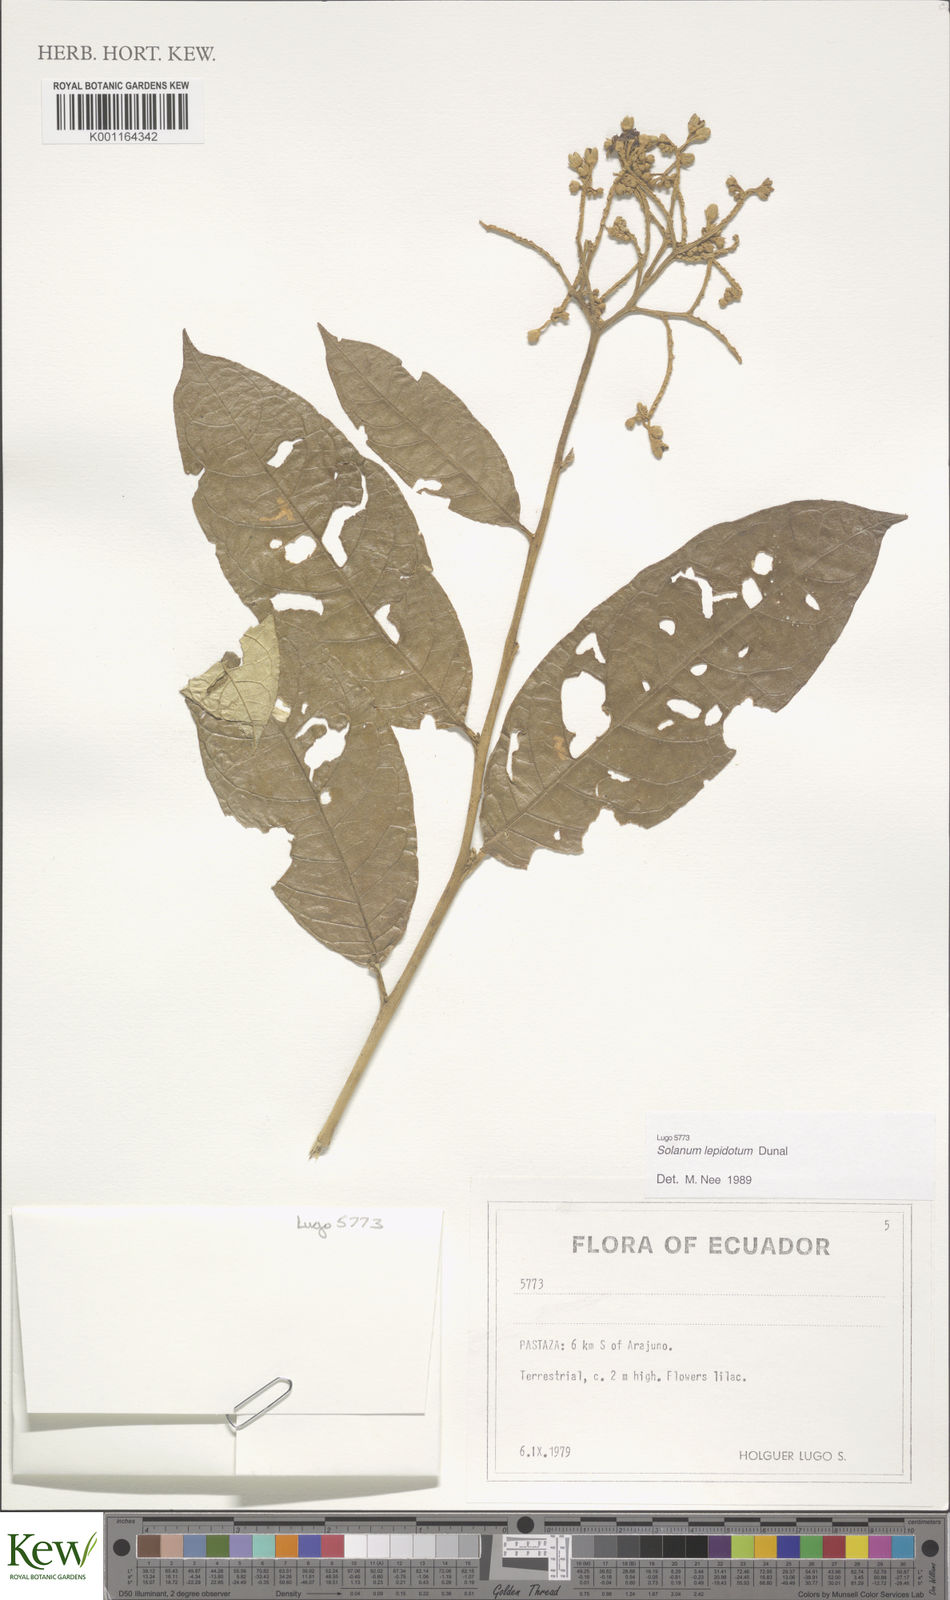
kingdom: Plantae
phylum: Tracheophyta
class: Magnoliopsida
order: Solanales
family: Solanaceae
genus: Solanum
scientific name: Solanum lepidotum
